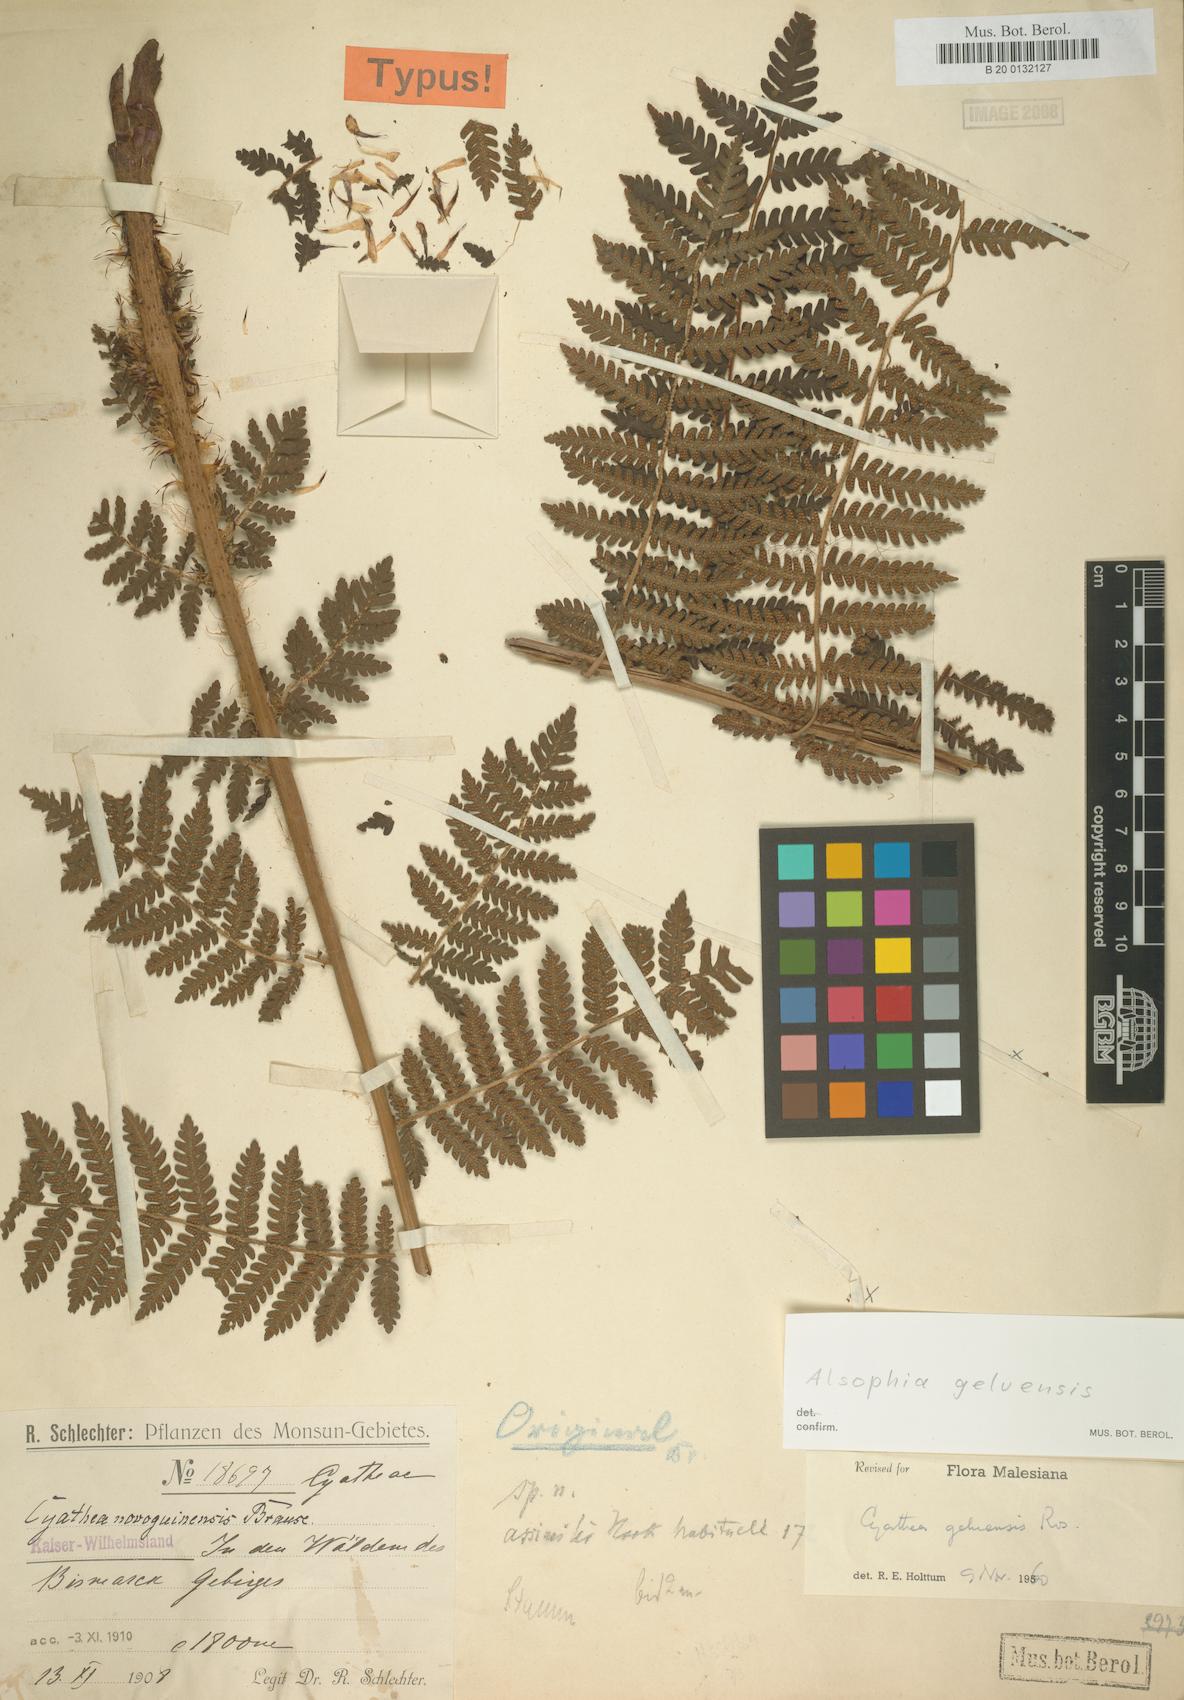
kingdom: Plantae
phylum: Tracheophyta
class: Polypodiopsida
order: Cyatheales
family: Cyatheaceae
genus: Alsophila
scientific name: Alsophila geluensis
